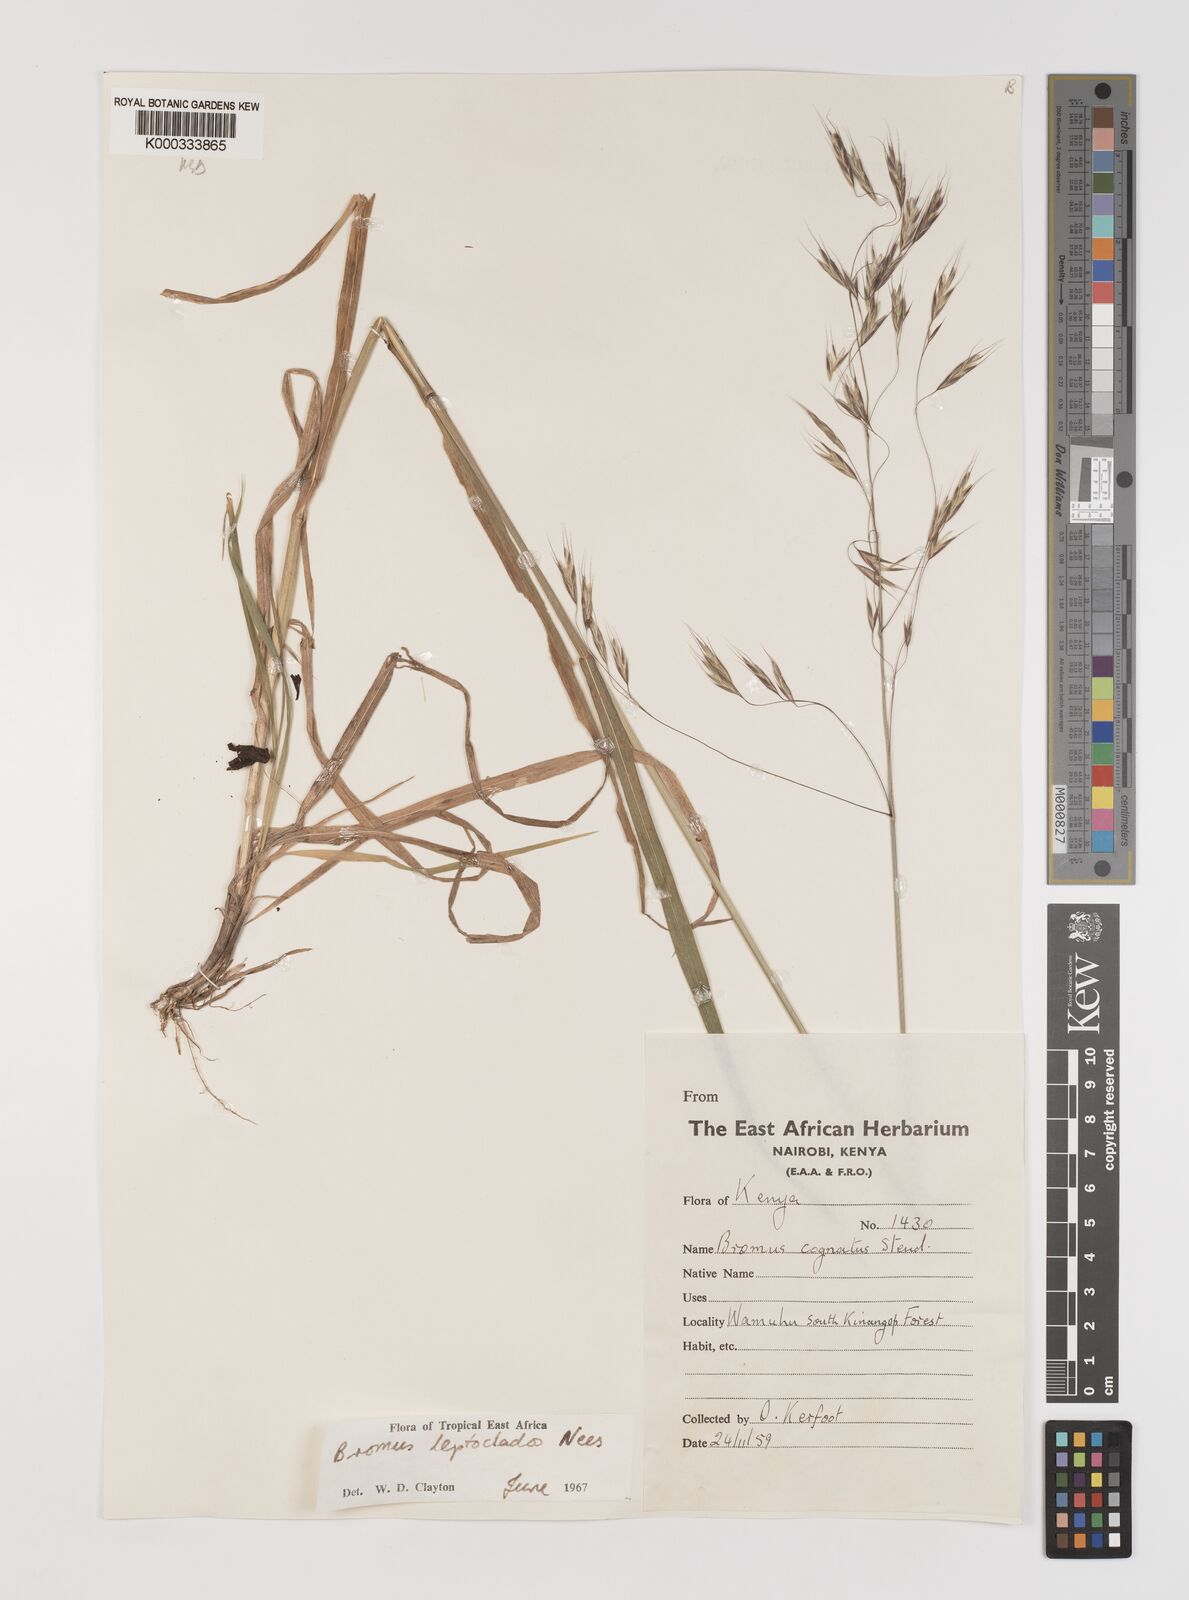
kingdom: Plantae
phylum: Tracheophyta
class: Liliopsida
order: Poales
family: Poaceae
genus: Bromus
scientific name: Bromus leptoclados
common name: Mountain bromegrass
